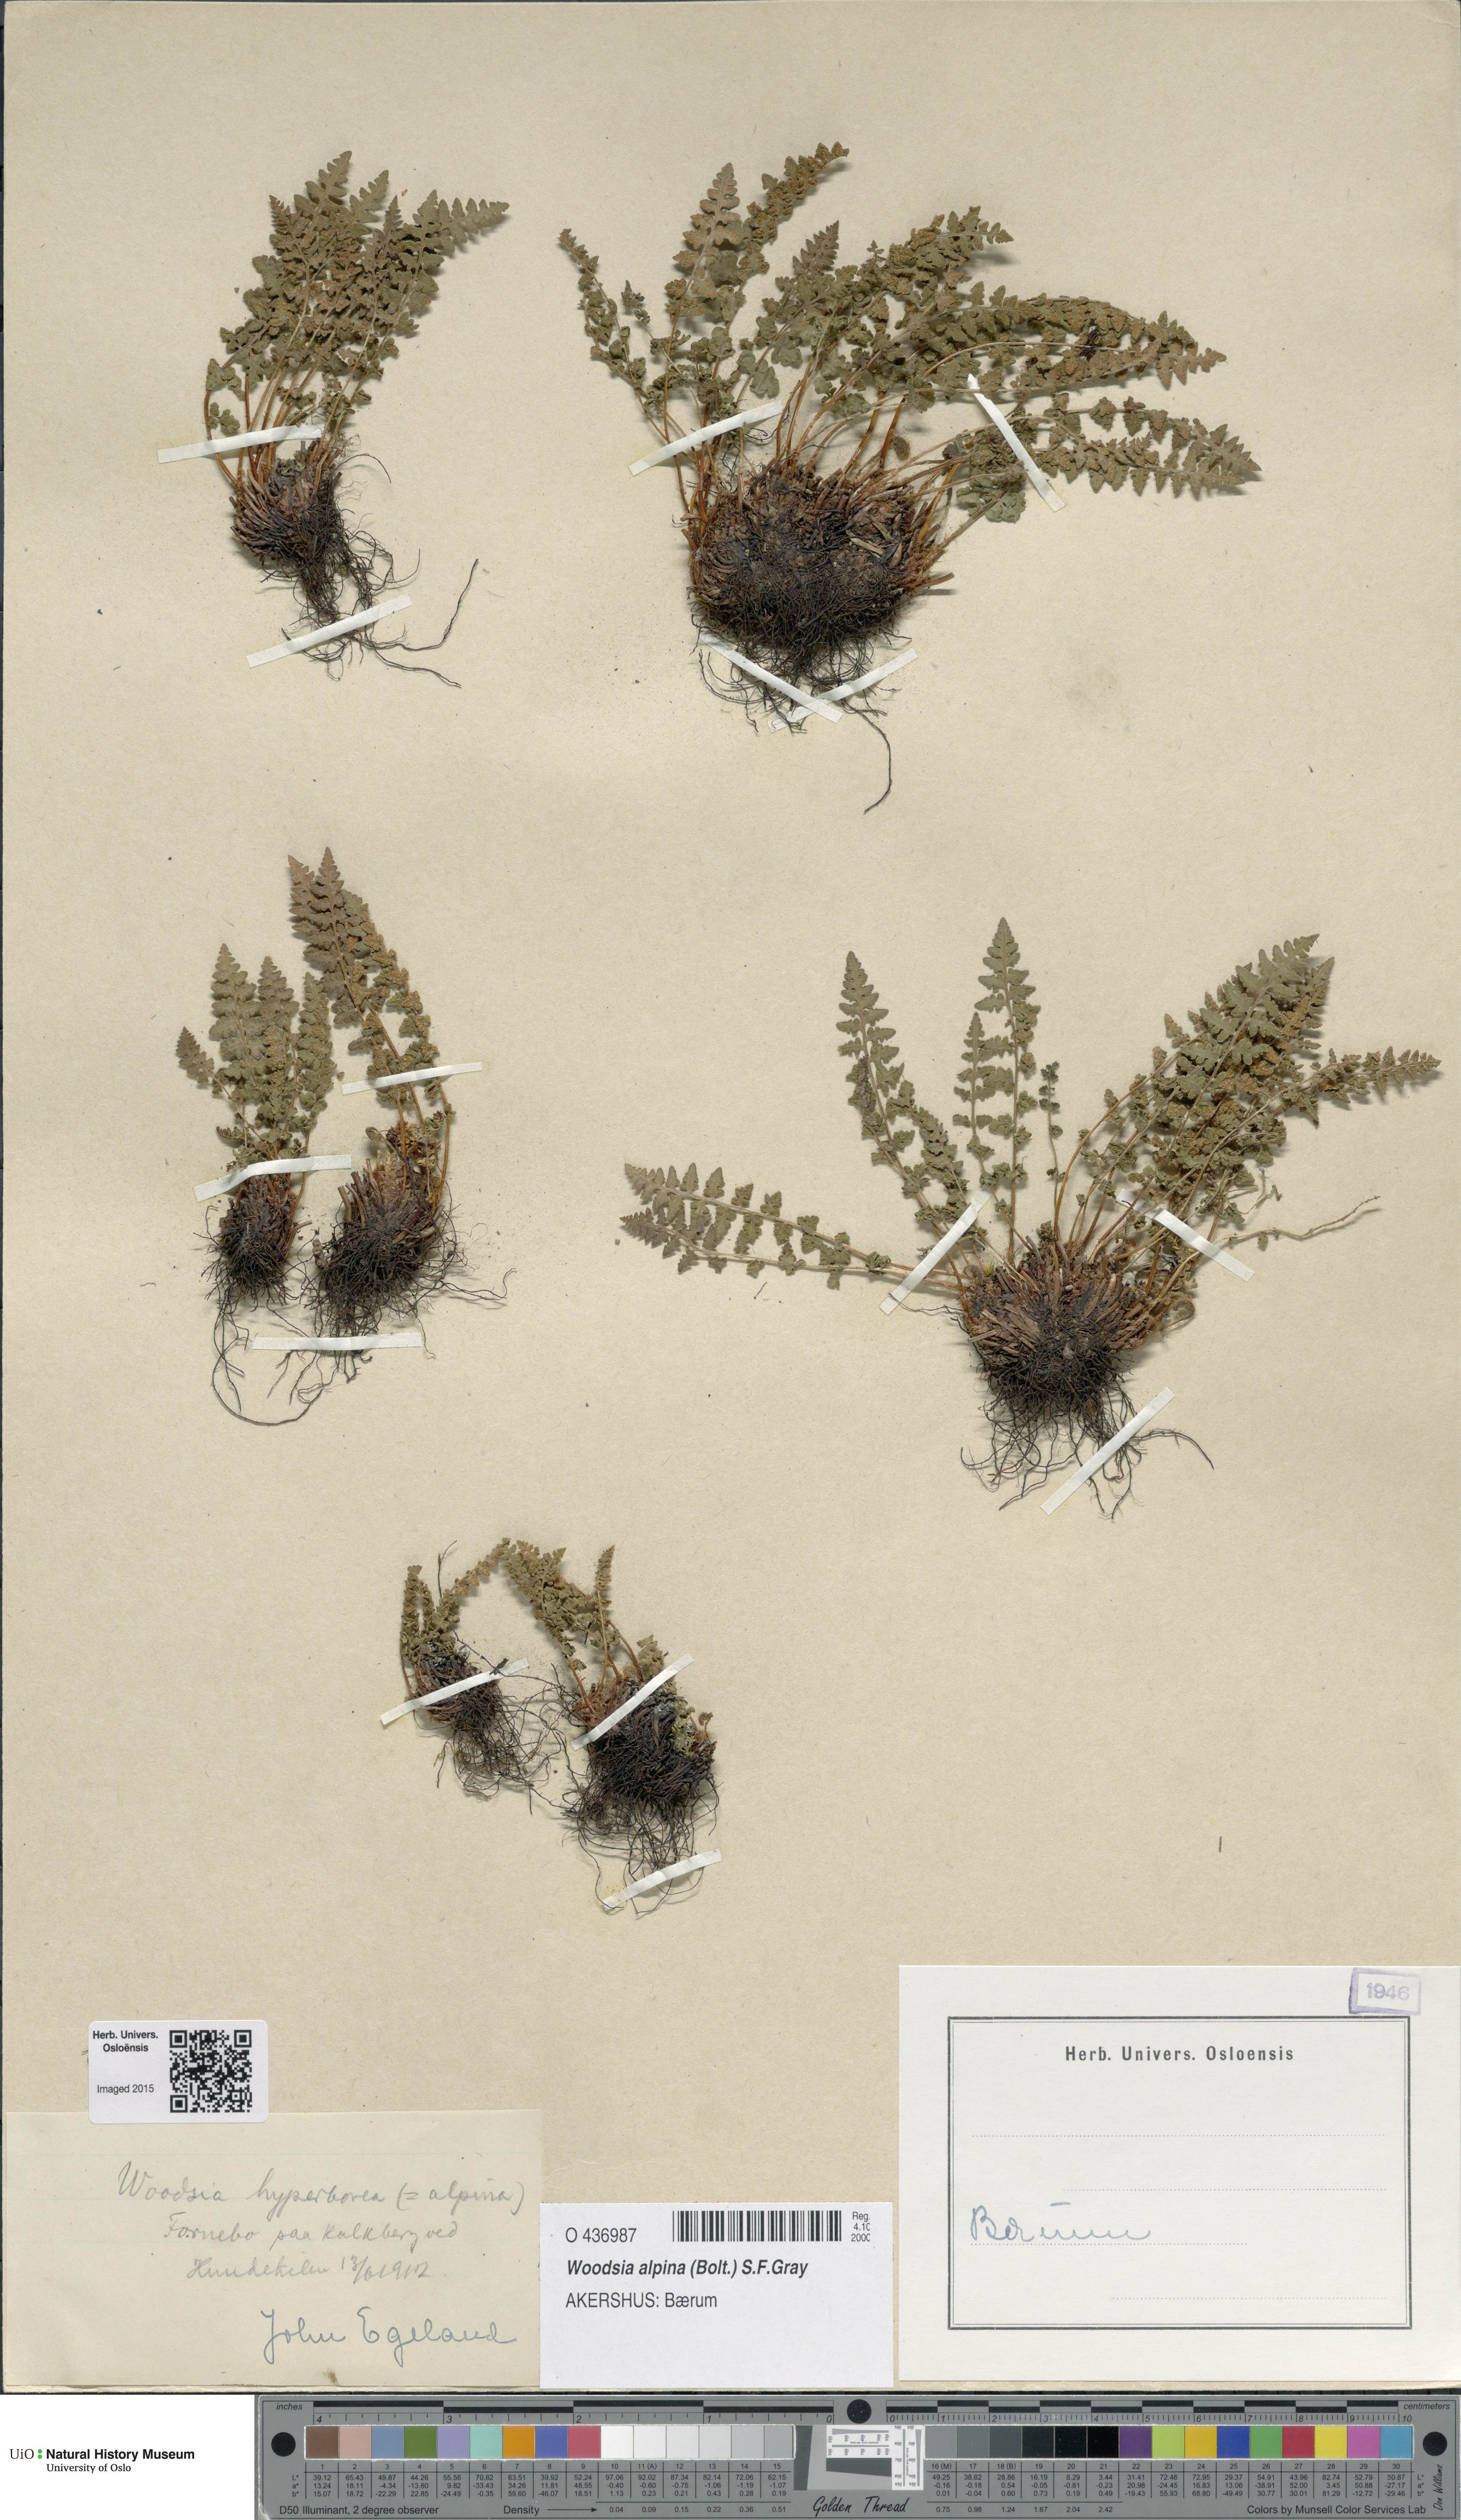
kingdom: Plantae
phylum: Tracheophyta
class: Polypodiopsida
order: Polypodiales
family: Woodsiaceae
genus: Woodsia
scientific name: Woodsia alpina
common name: Alpine woodsia
